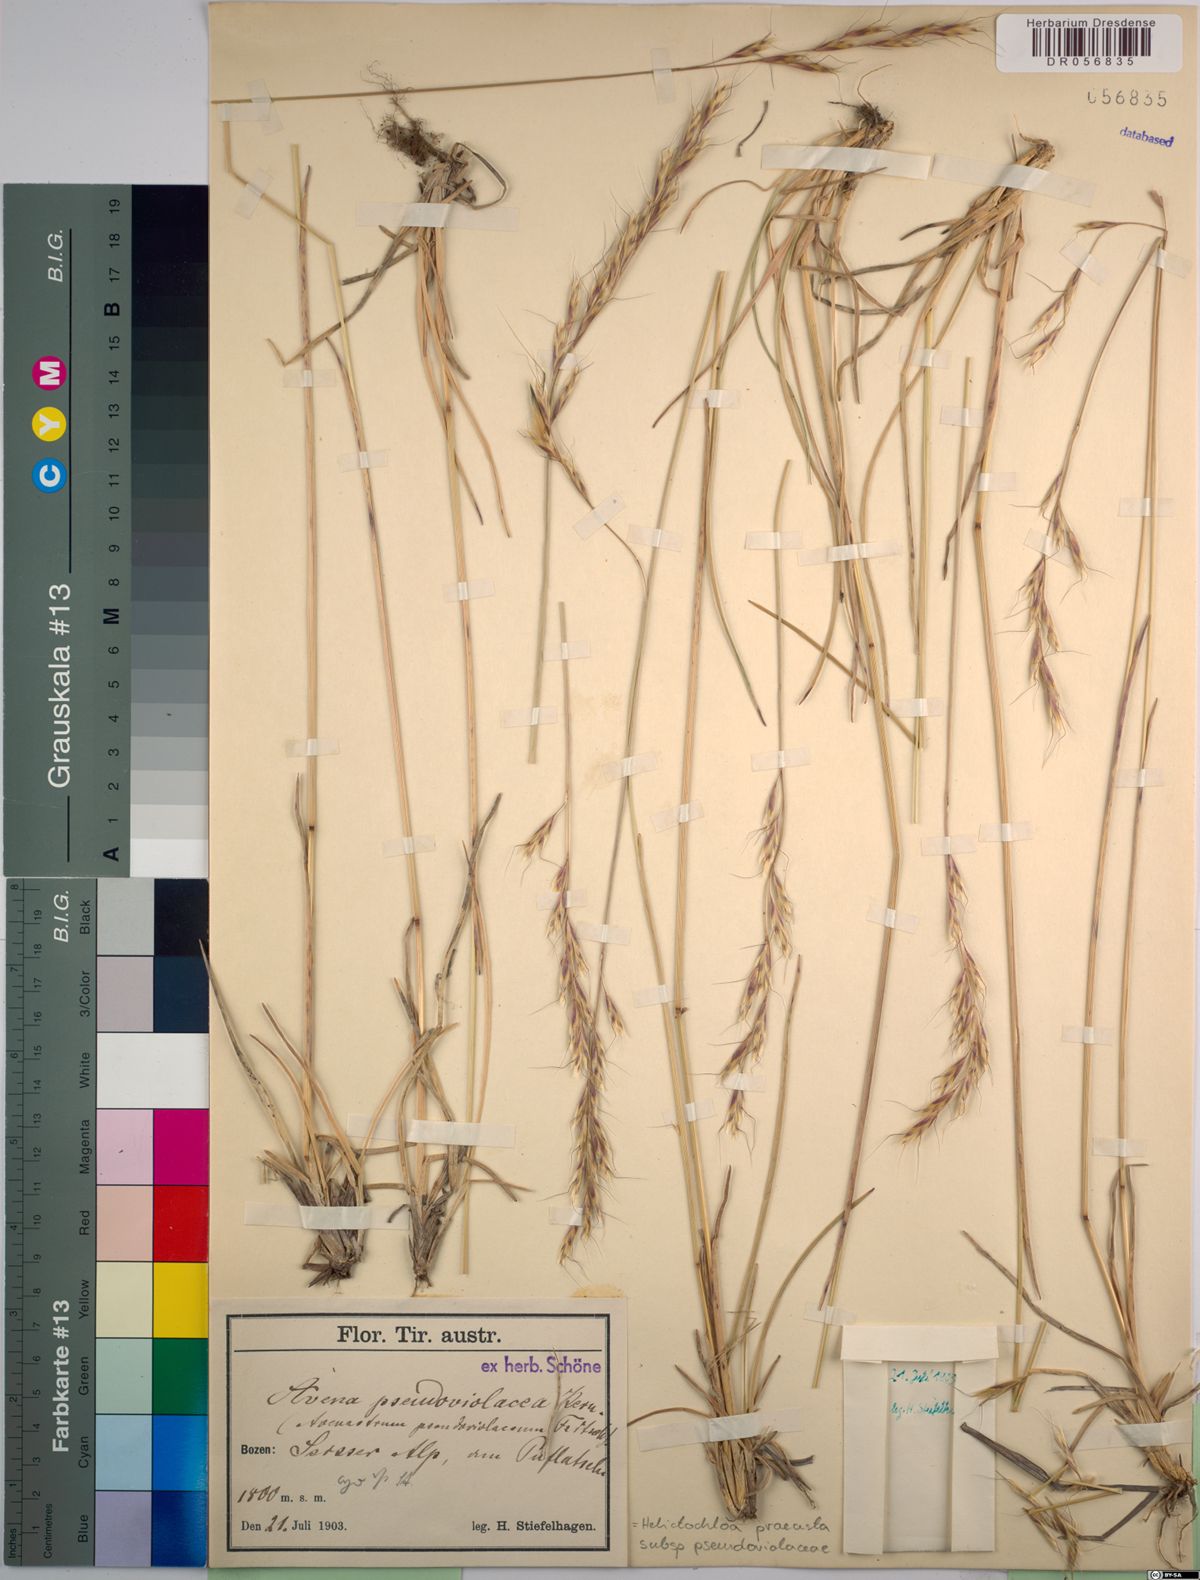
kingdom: Plantae
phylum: Tracheophyta
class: Liliopsida
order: Poales
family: Poaceae
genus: Helictochloa
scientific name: Helictochloa praeusta
